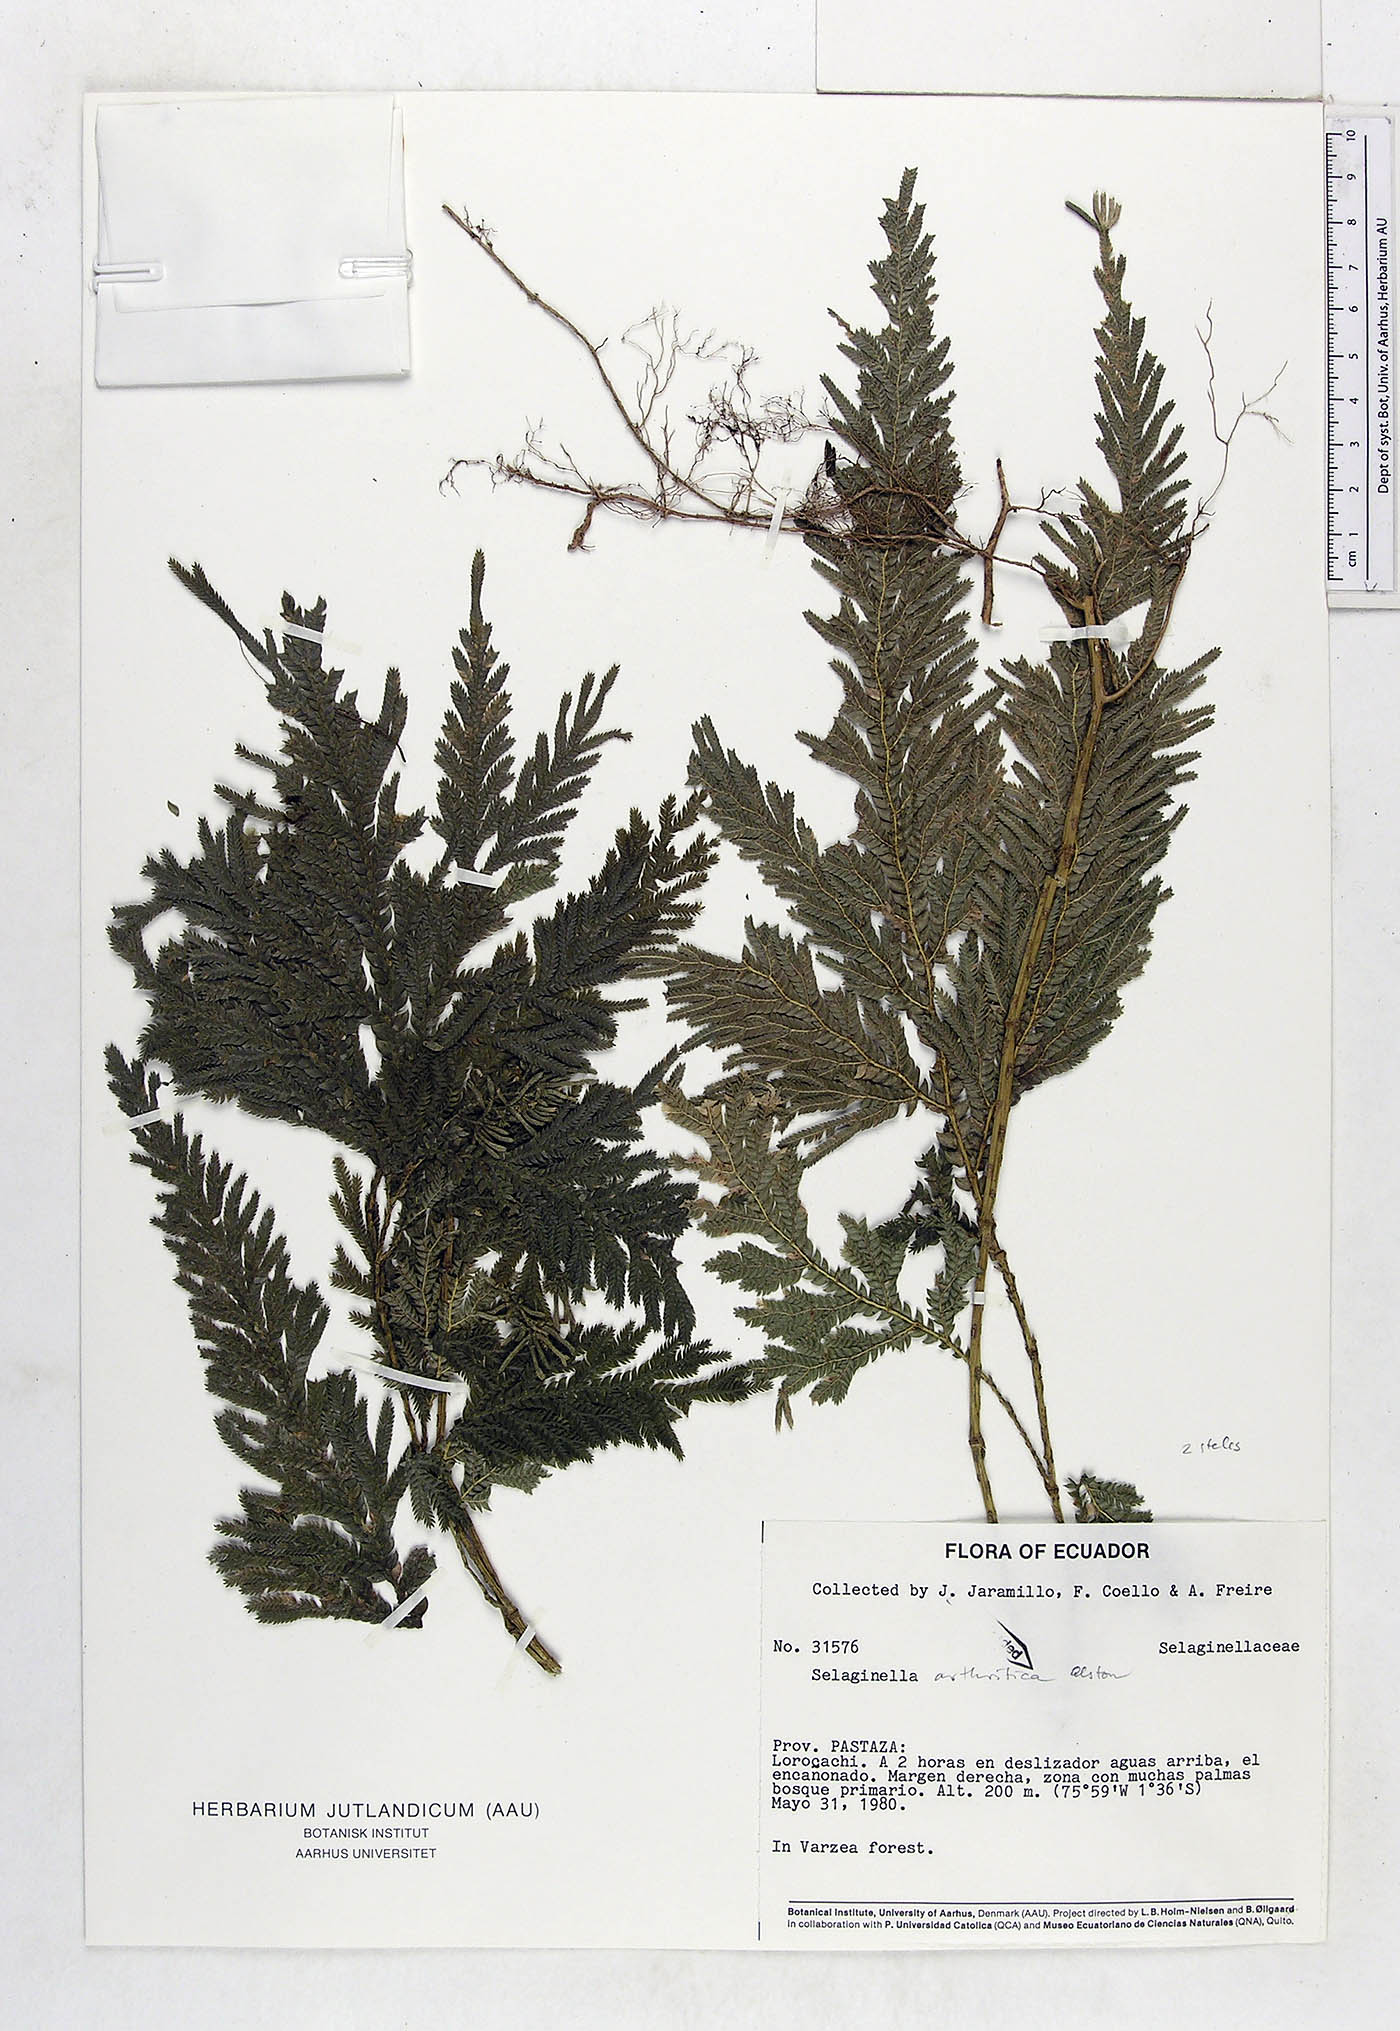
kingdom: Plantae
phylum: Tracheophyta
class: Lycopodiopsida
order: Selaginellales
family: Selaginellaceae
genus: Selaginella
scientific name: Selaginella arthritica
